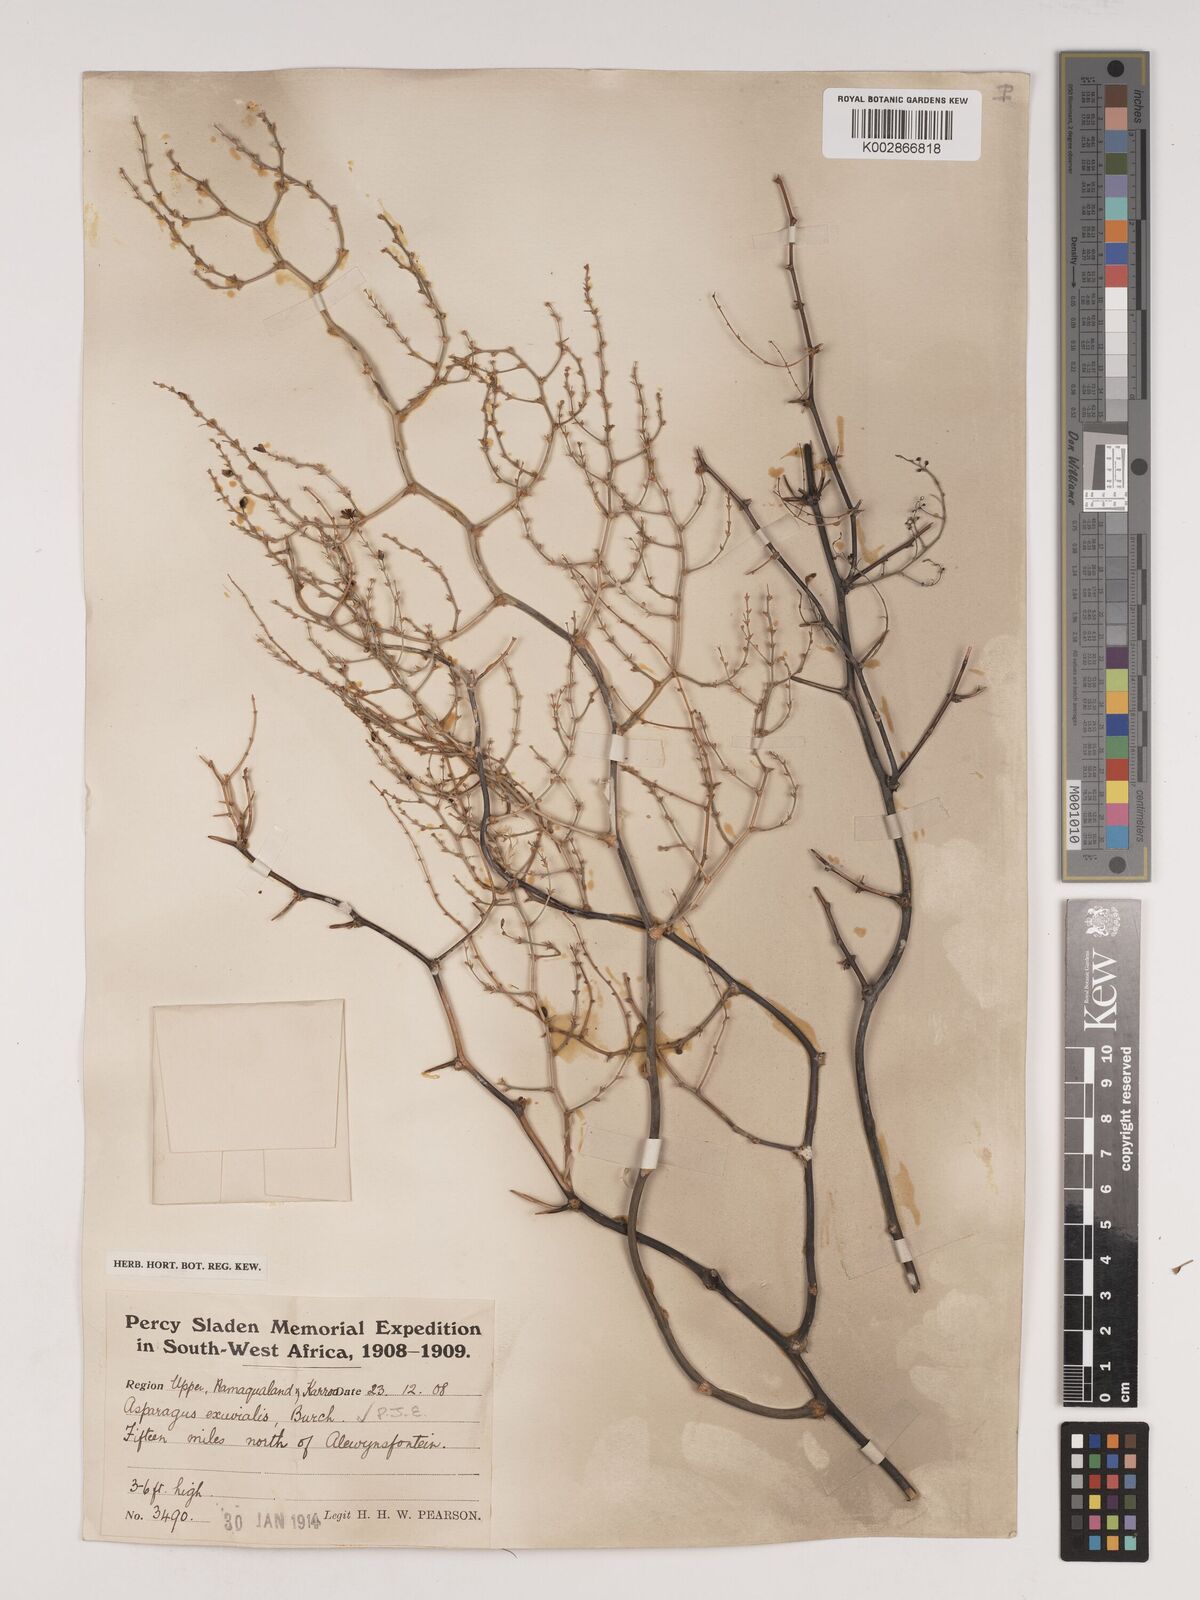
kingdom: Plantae
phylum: Tracheophyta
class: Liliopsida
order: Asparagales
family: Asparagaceae
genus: Asparagus
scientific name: Asparagus exuvialis
